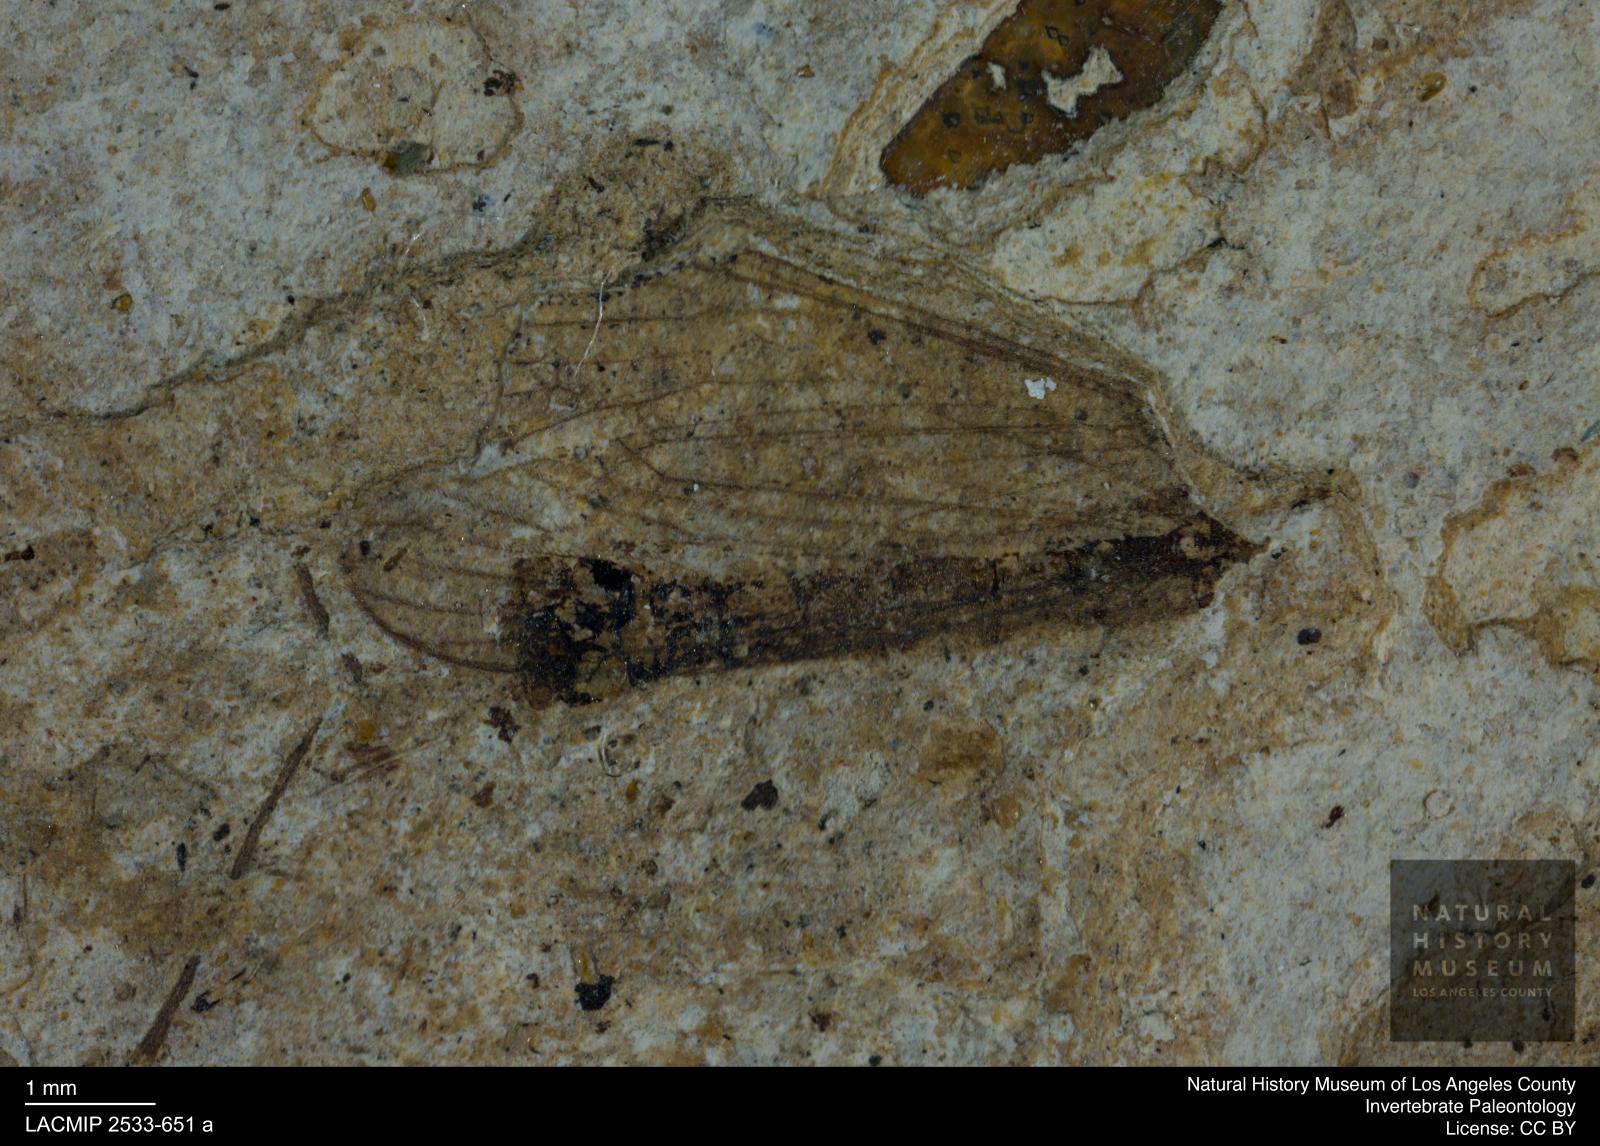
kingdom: Animalia
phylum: Arthropoda
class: Insecta
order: Diptera
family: Limoniidae
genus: Limnophila
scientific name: Limnophila umbonata
